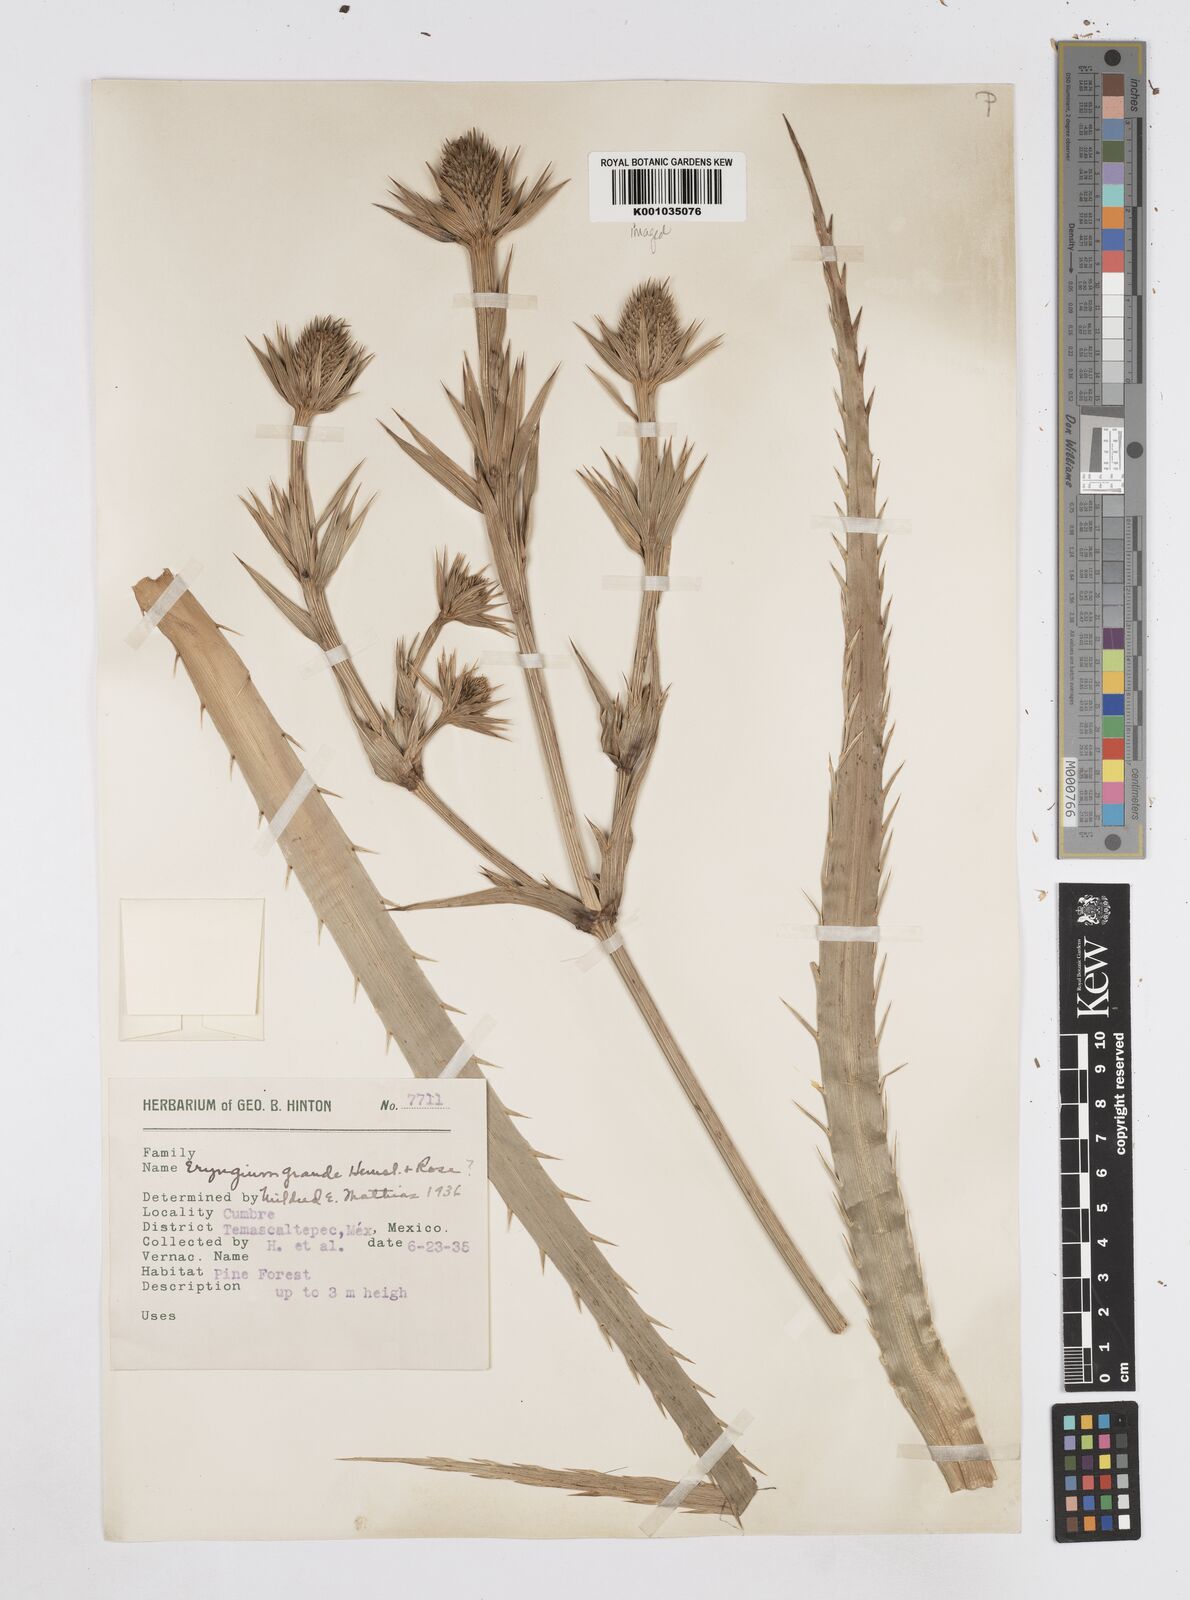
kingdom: Plantae
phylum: Tracheophyta
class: Magnoliopsida
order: Apiales
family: Apiaceae
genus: Eryngium
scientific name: Eryngium monocephalum
